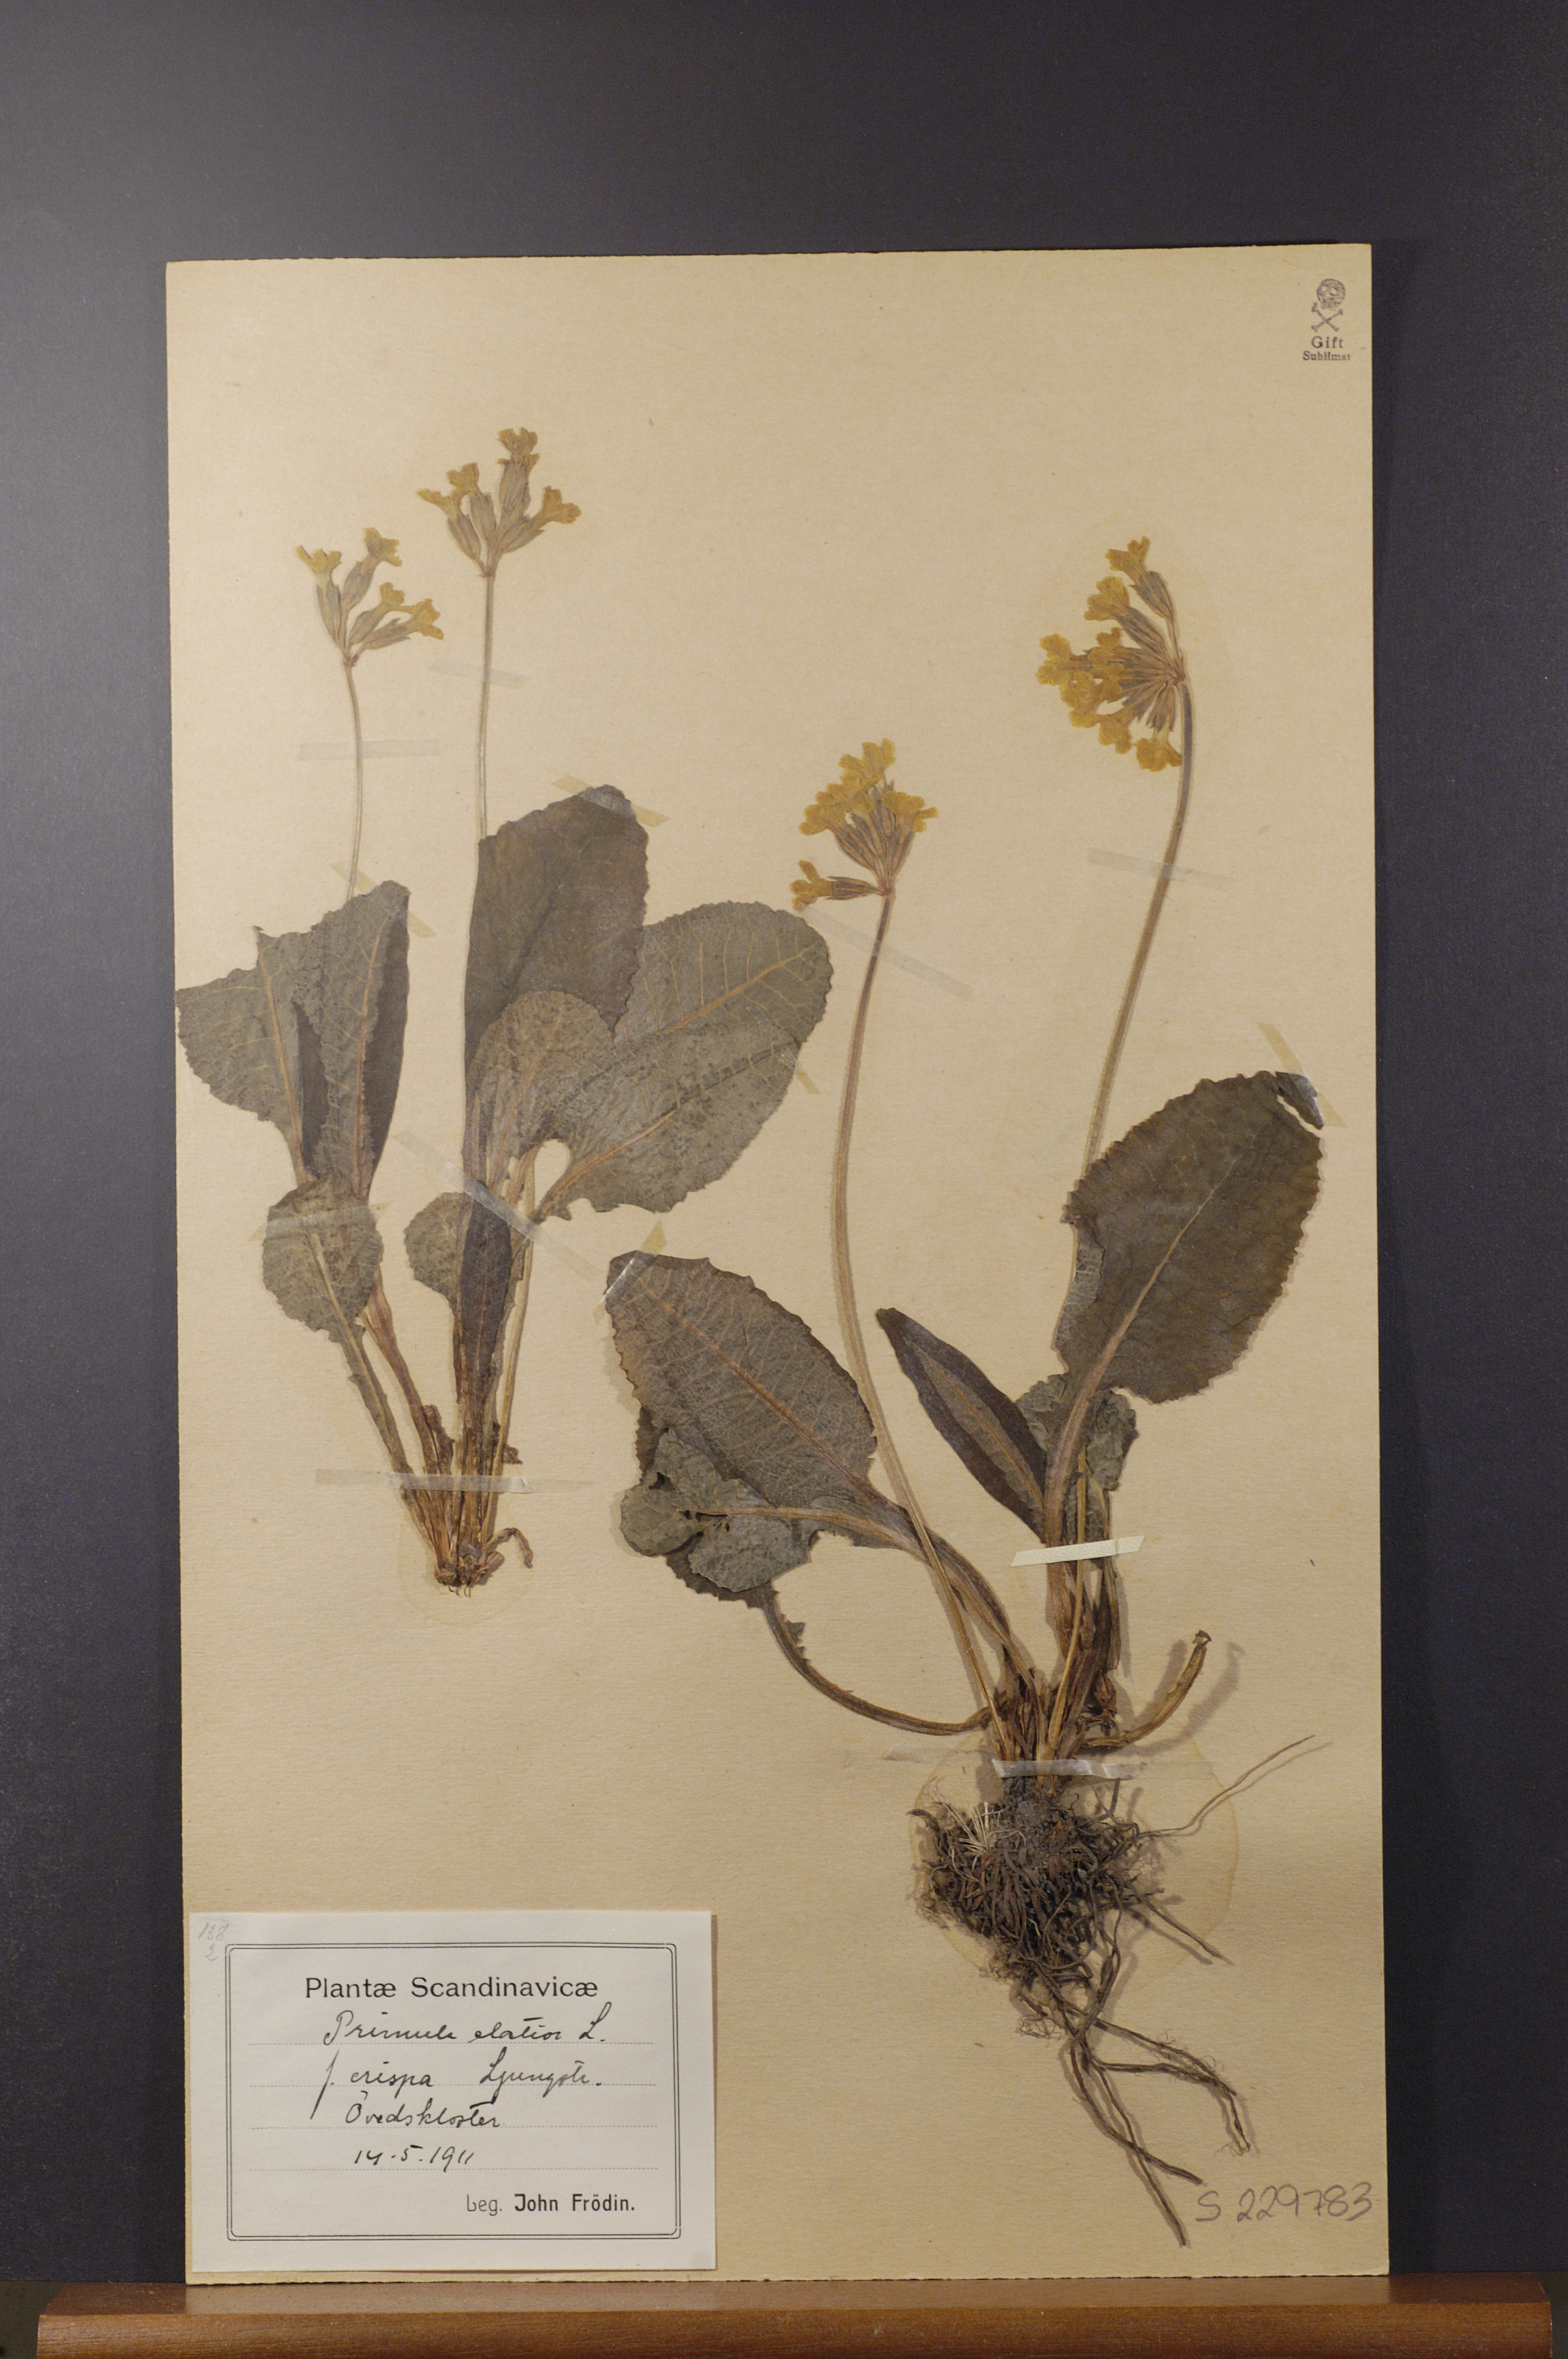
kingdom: Plantae
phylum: Tracheophyta
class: Magnoliopsida
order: Ericales
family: Primulaceae
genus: Primula
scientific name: Primula elatior
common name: Oxlip
